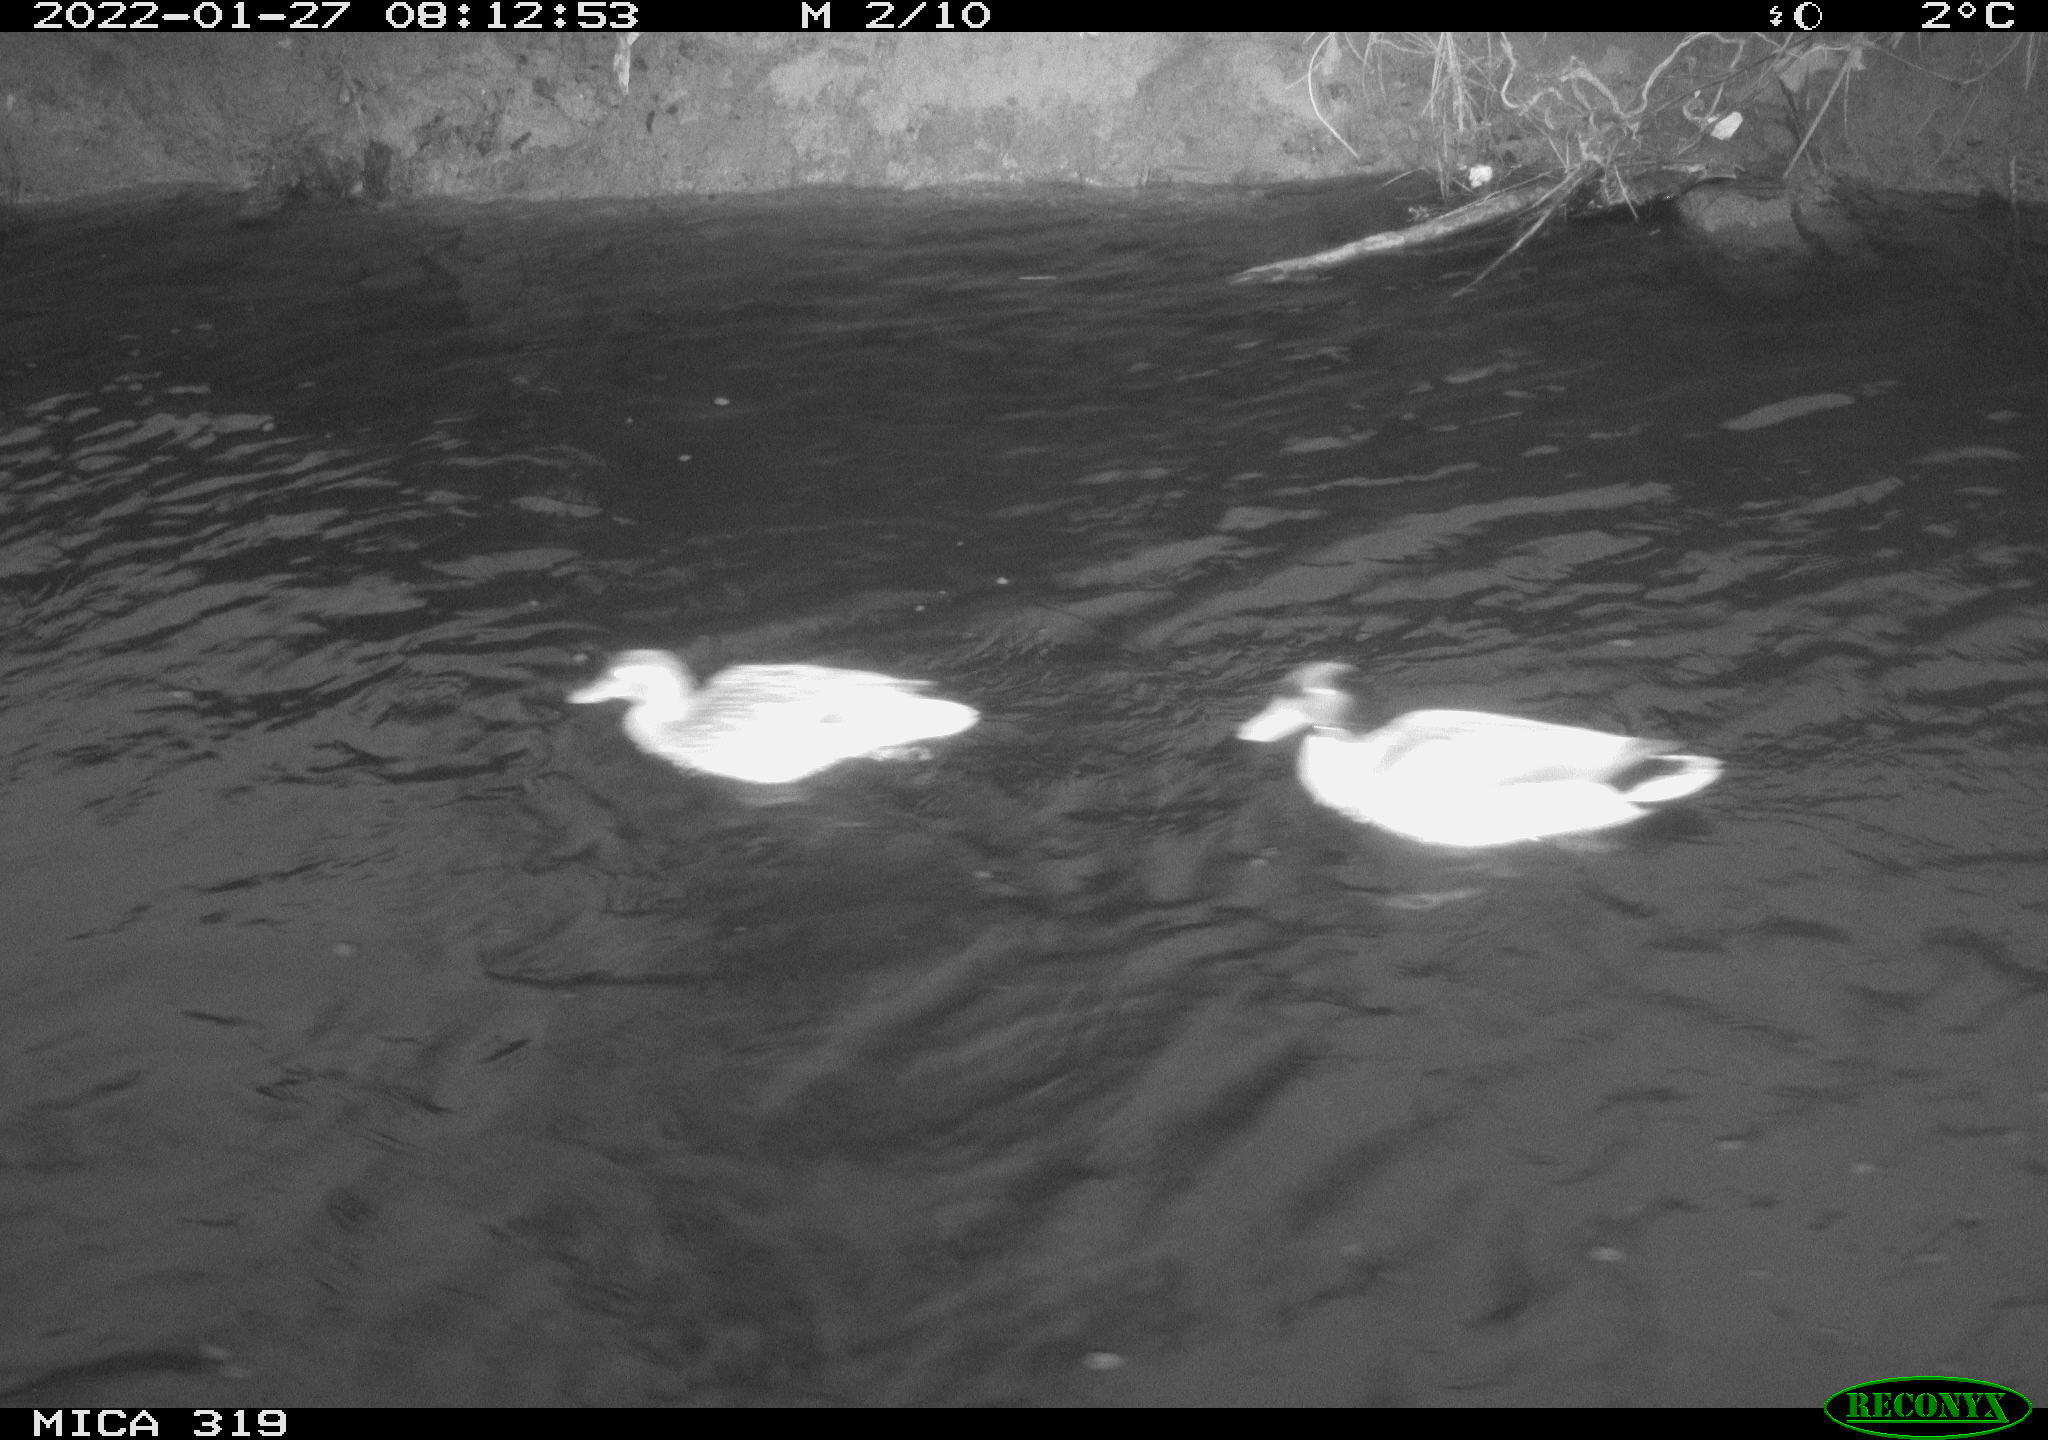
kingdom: Animalia
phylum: Chordata
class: Aves
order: Anseriformes
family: Anatidae
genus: Anas
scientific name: Anas platyrhynchos
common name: Mallard
